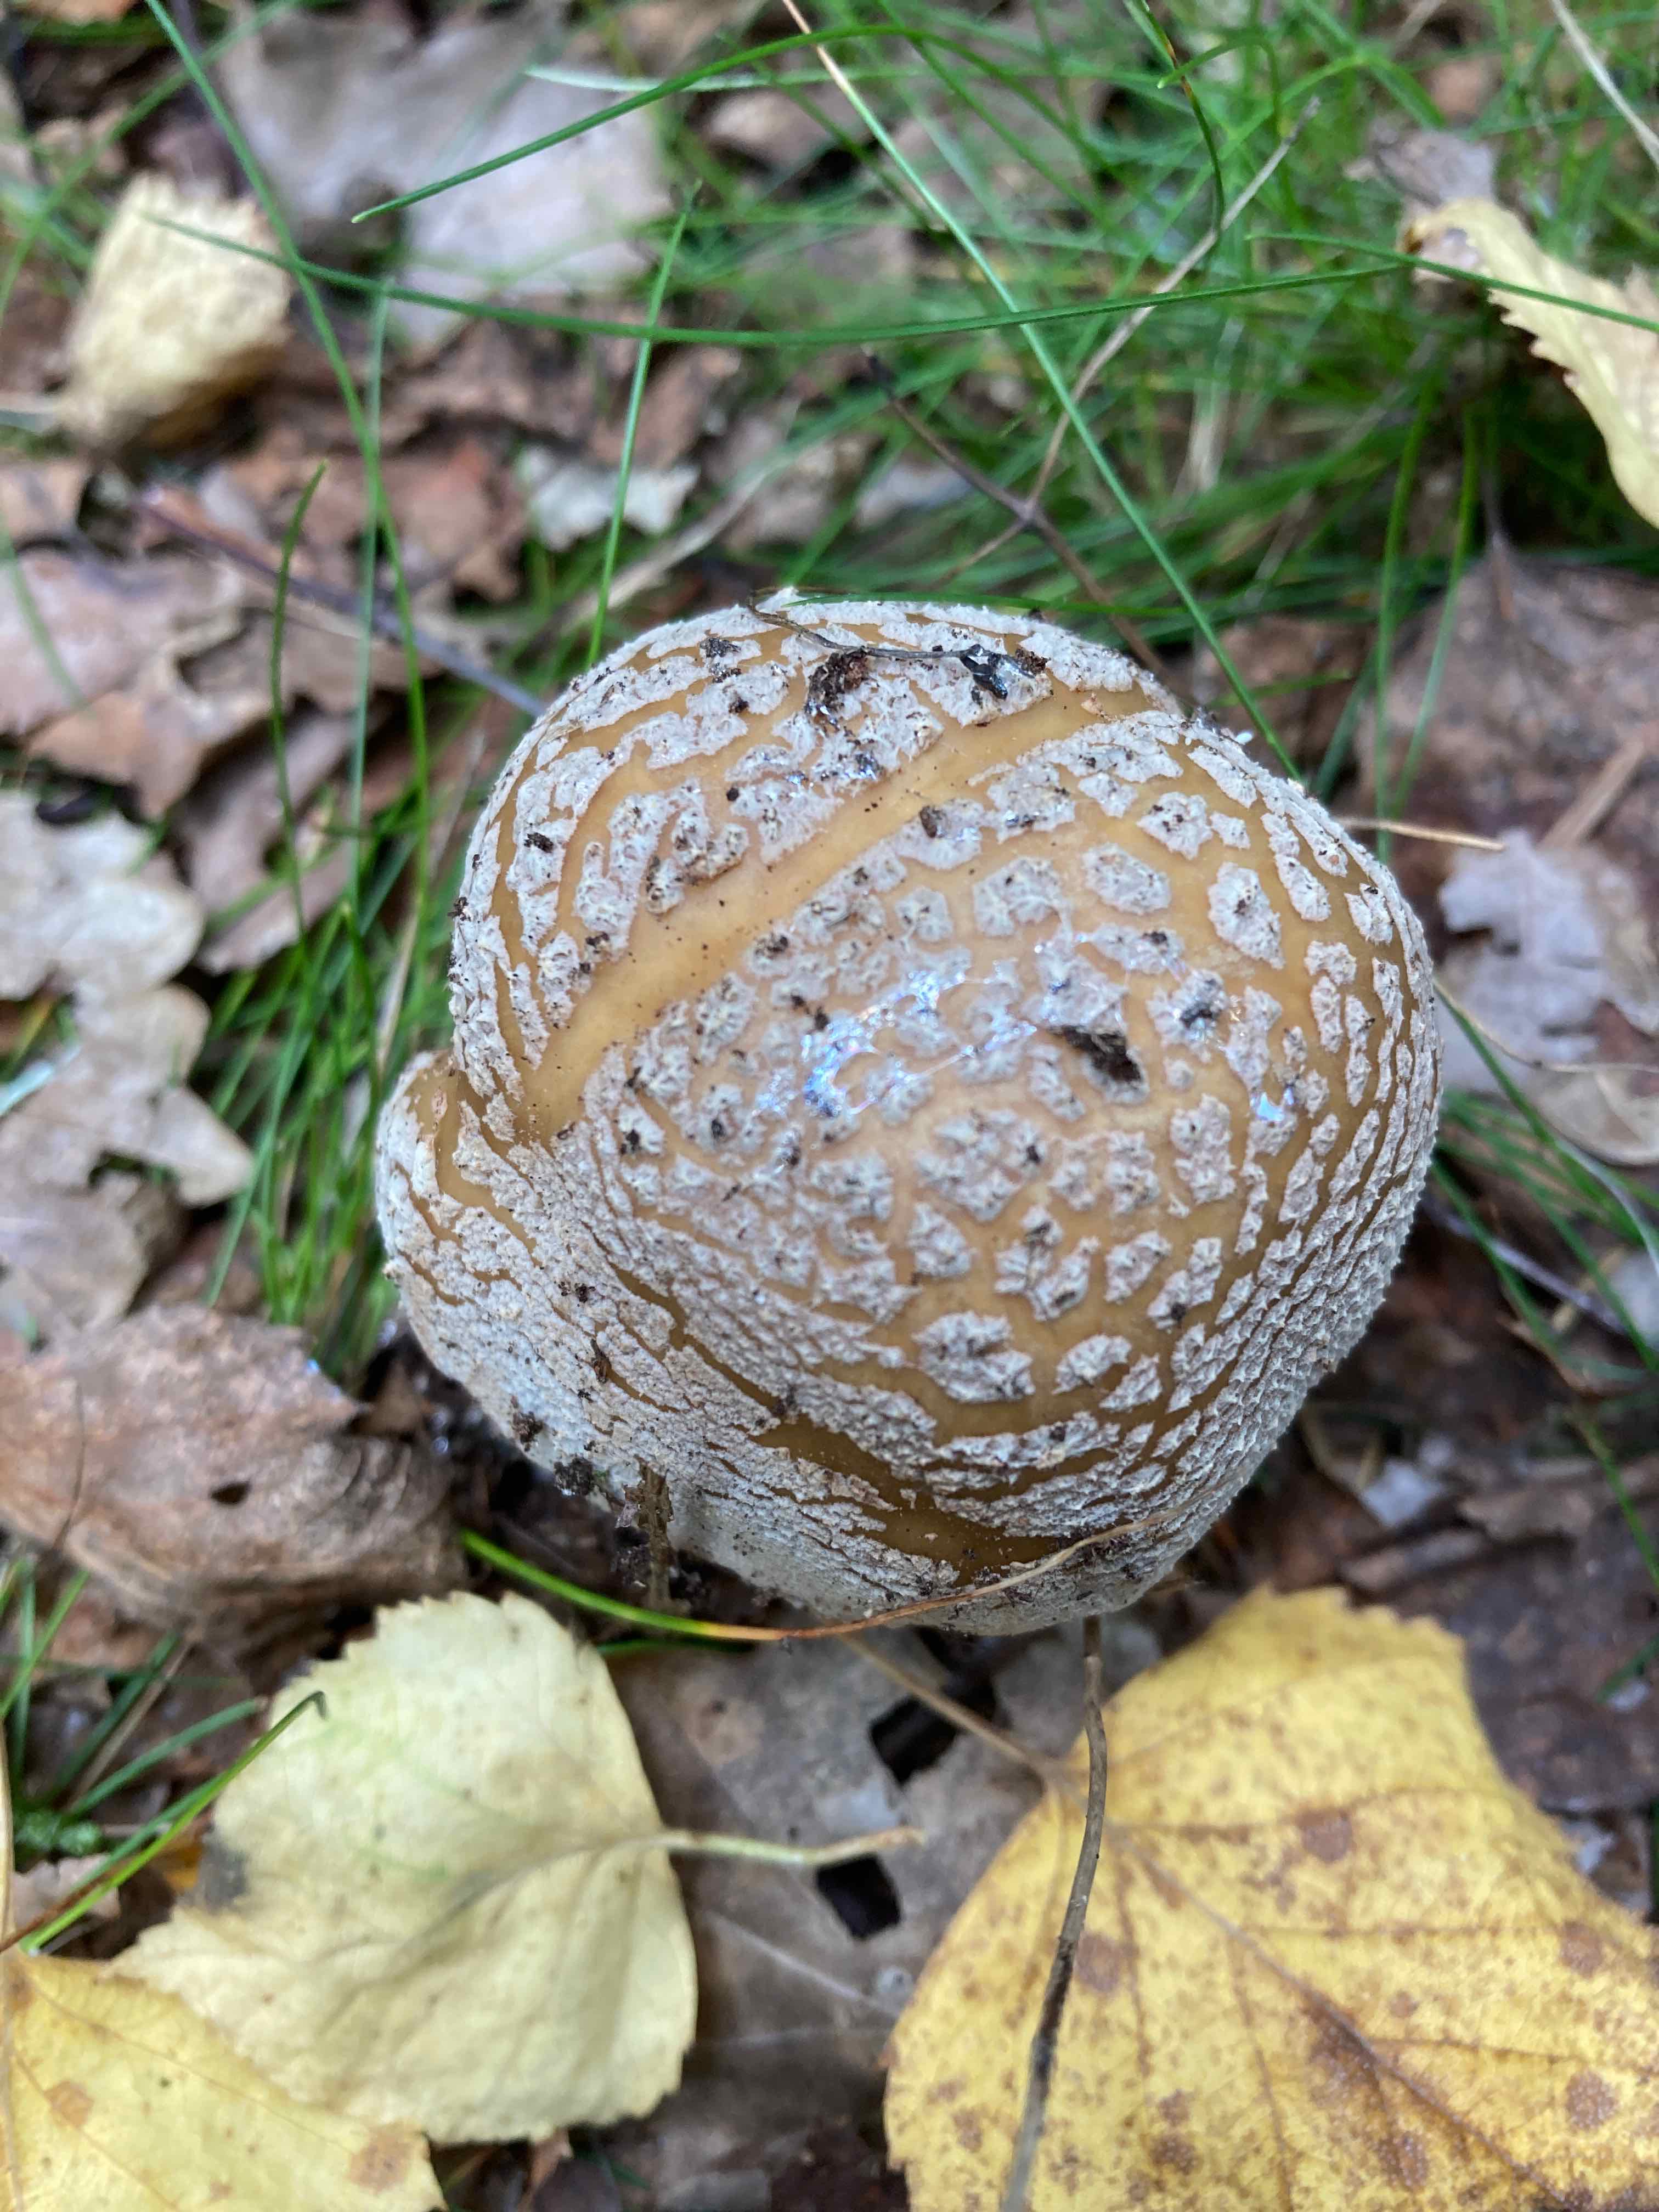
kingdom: Fungi
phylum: Basidiomycota
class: Agaricomycetes
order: Agaricales
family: Amanitaceae
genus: Amanita
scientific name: Amanita rubescens
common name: rødmende fluesvamp
